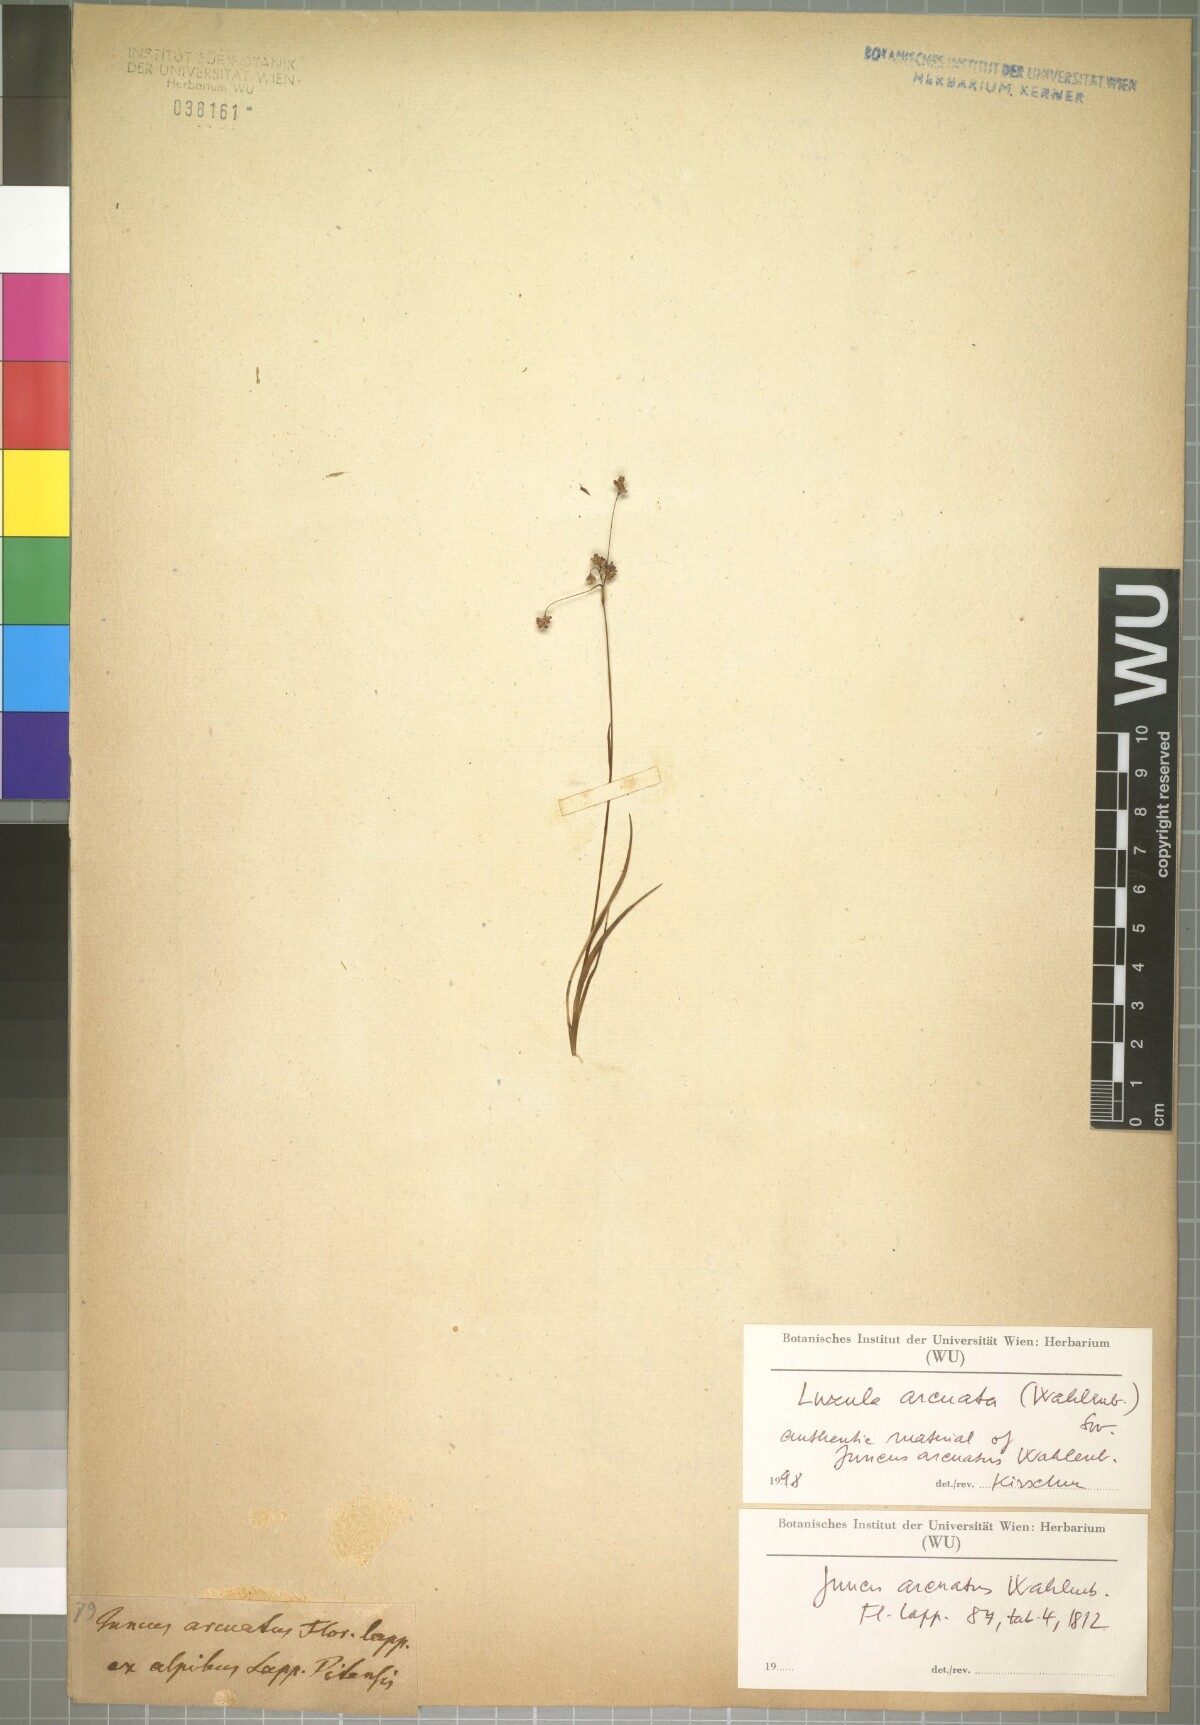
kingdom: Plantae
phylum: Tracheophyta
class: Liliopsida
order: Poales
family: Juncaceae
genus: Luzula
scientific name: Luzula arcuata
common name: Curved wood-rush
